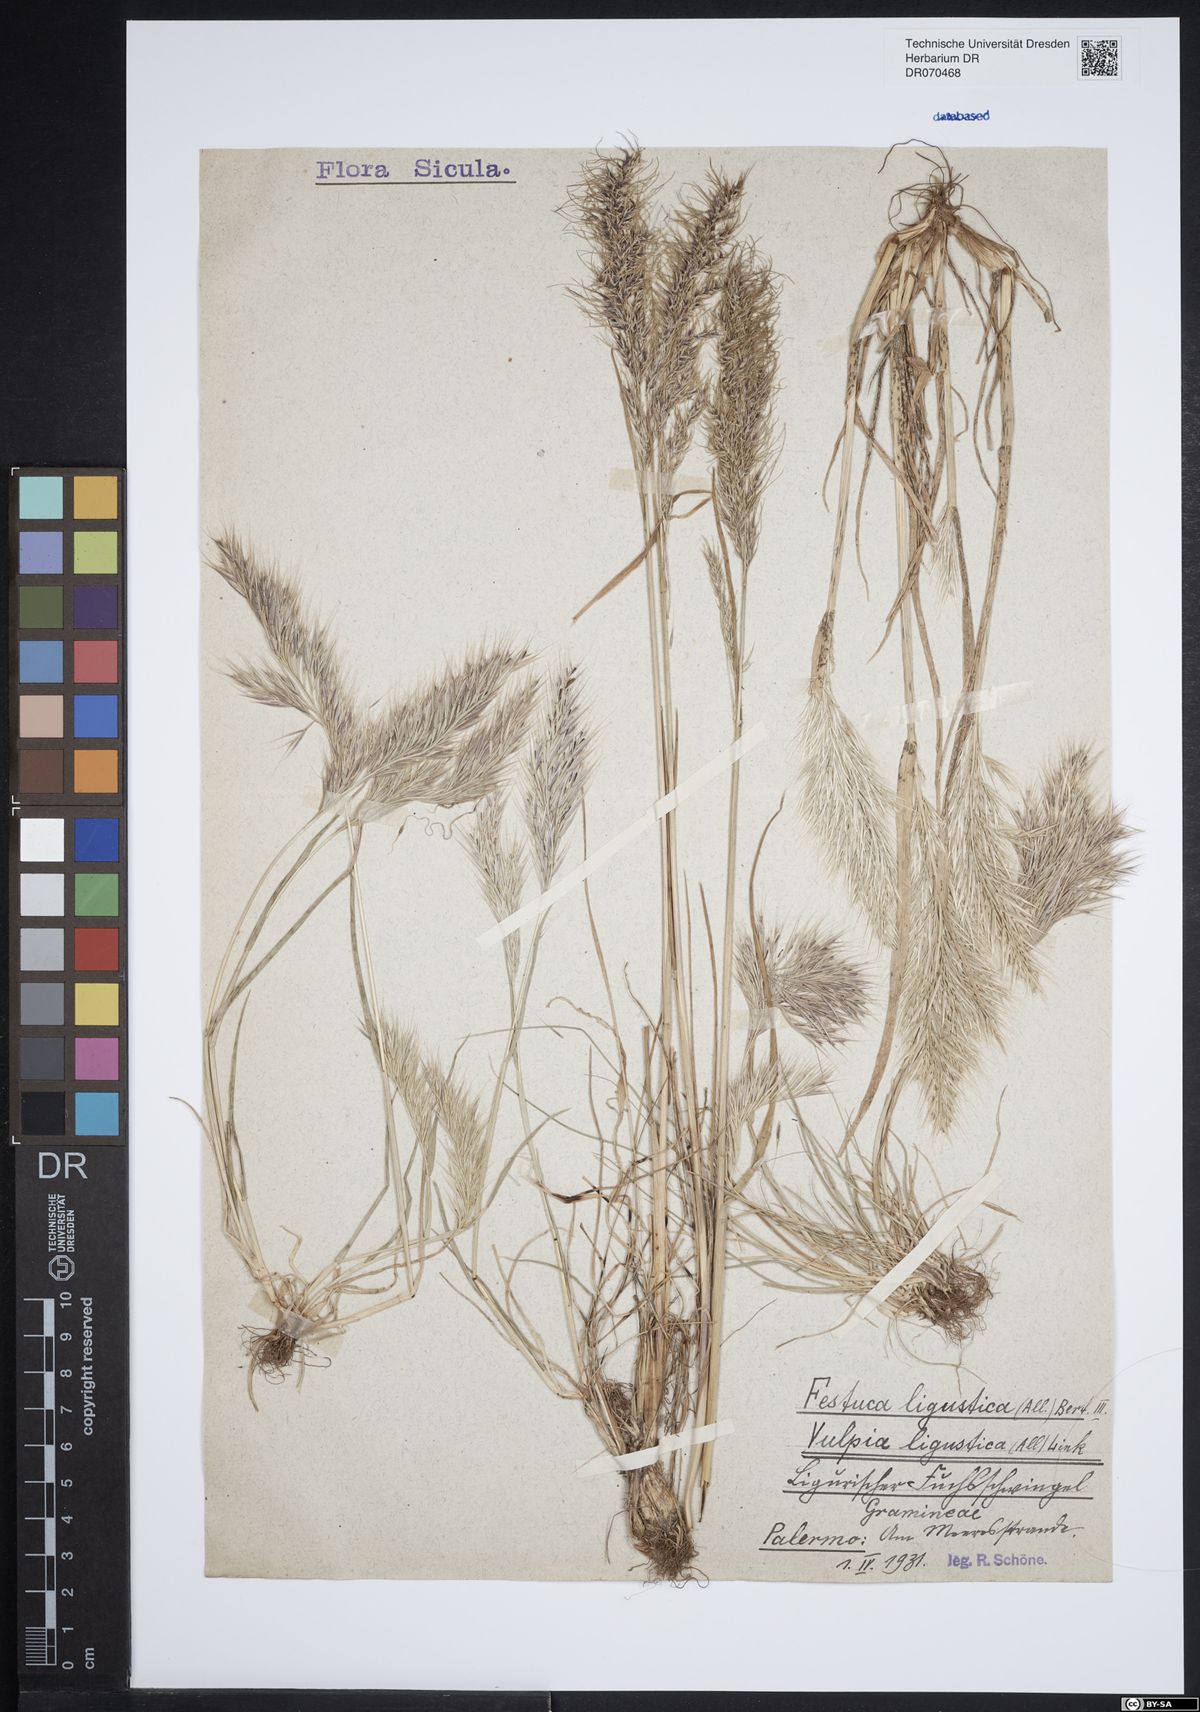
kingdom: Plantae
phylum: Tracheophyta
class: Liliopsida
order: Poales
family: Poaceae
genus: Festuca
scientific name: Festuca ligustica
